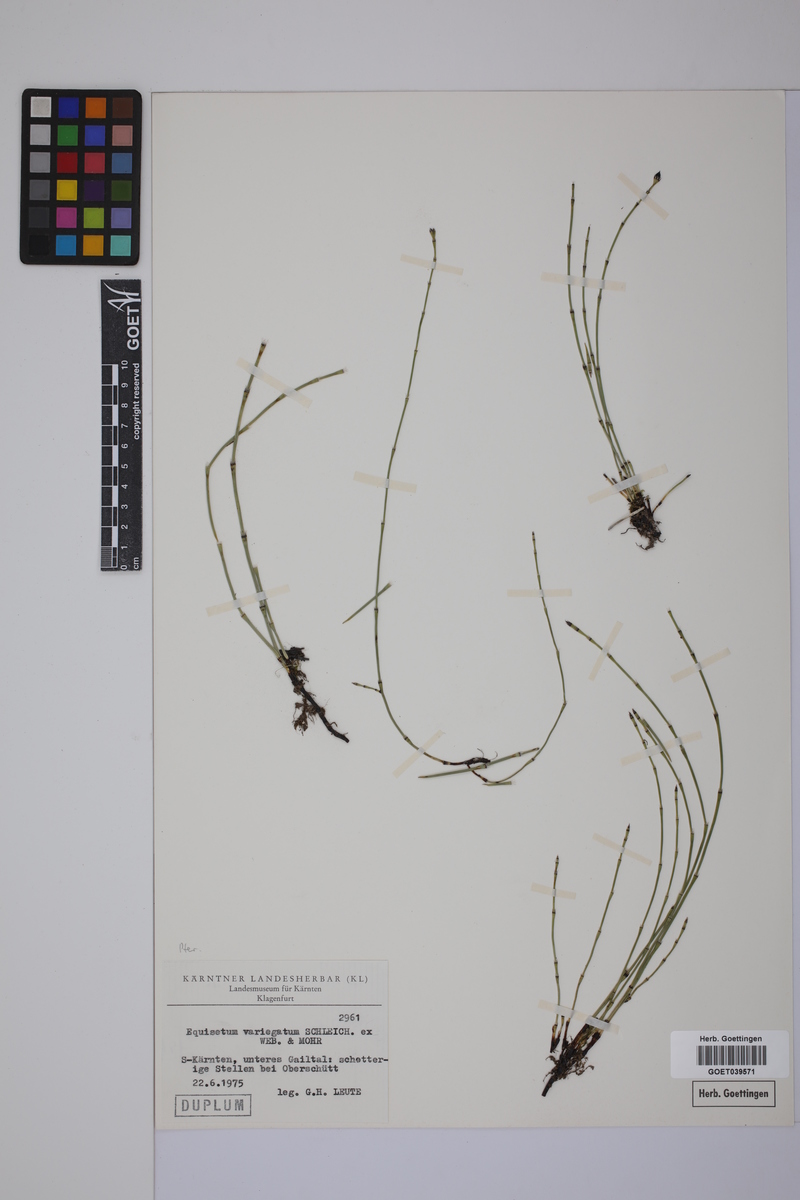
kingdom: Plantae
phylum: Tracheophyta
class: Polypodiopsida
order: Equisetales
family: Equisetaceae
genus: Equisetum
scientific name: Equisetum variegatum
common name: Variegated horsetail
